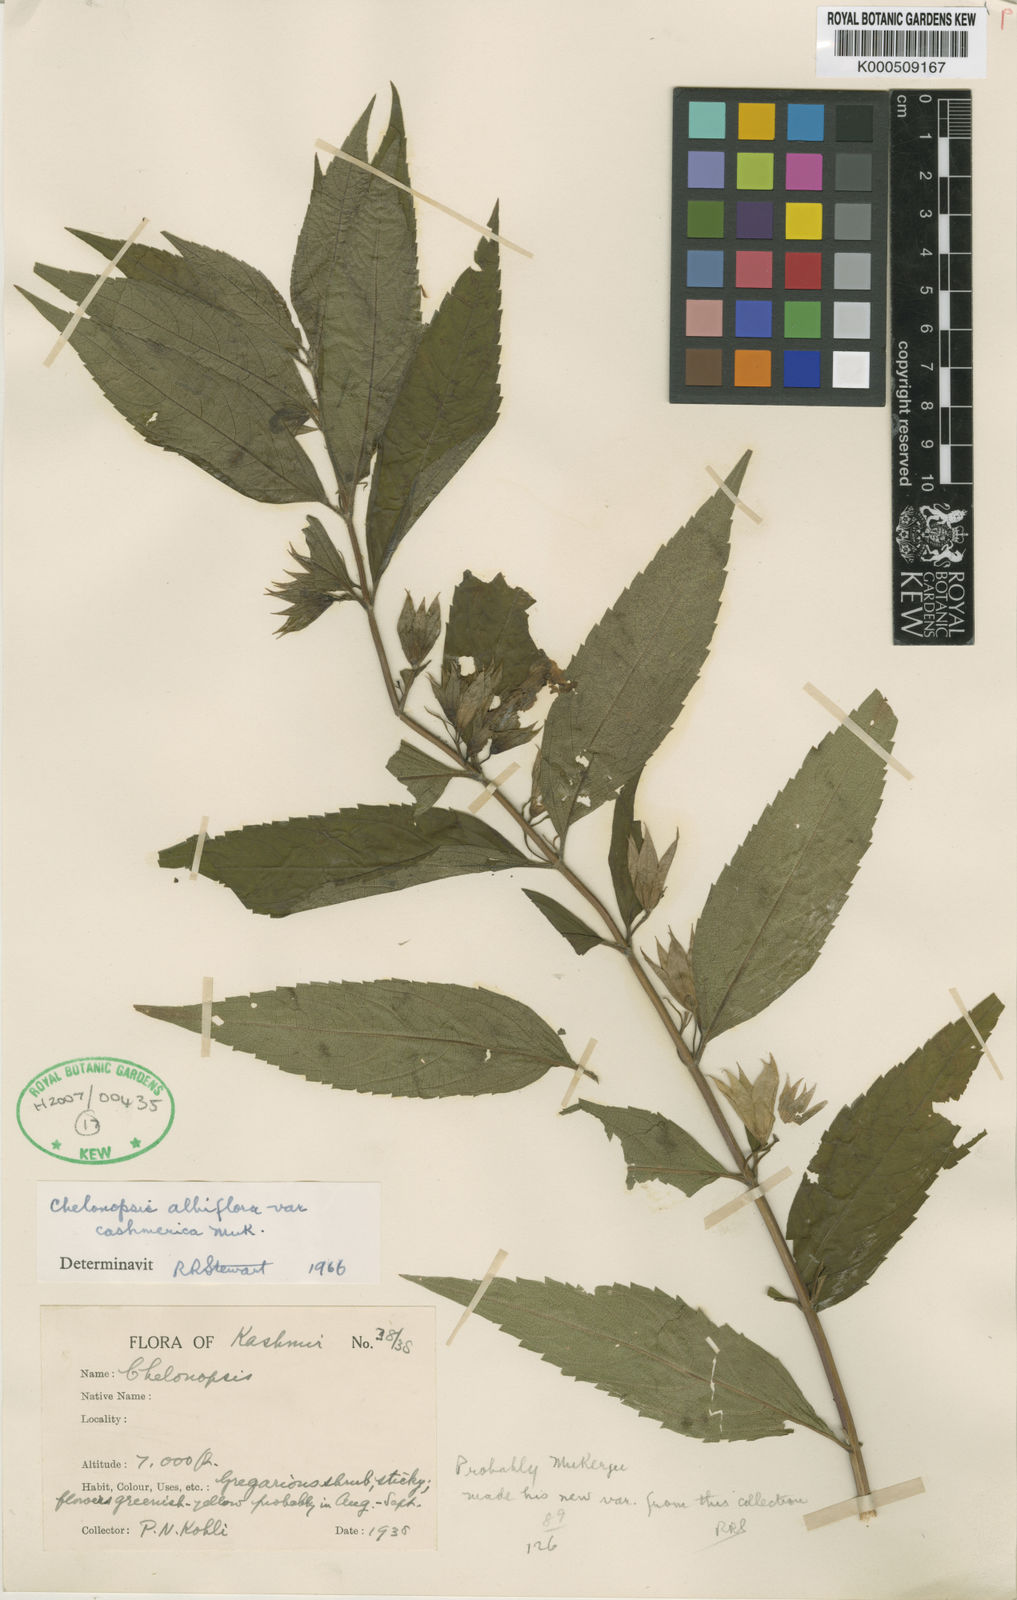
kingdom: Plantae
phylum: Tracheophyta
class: Magnoliopsida
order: Lamiales
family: Lamiaceae
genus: Chelonopsis
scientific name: Chelonopsis souliei
